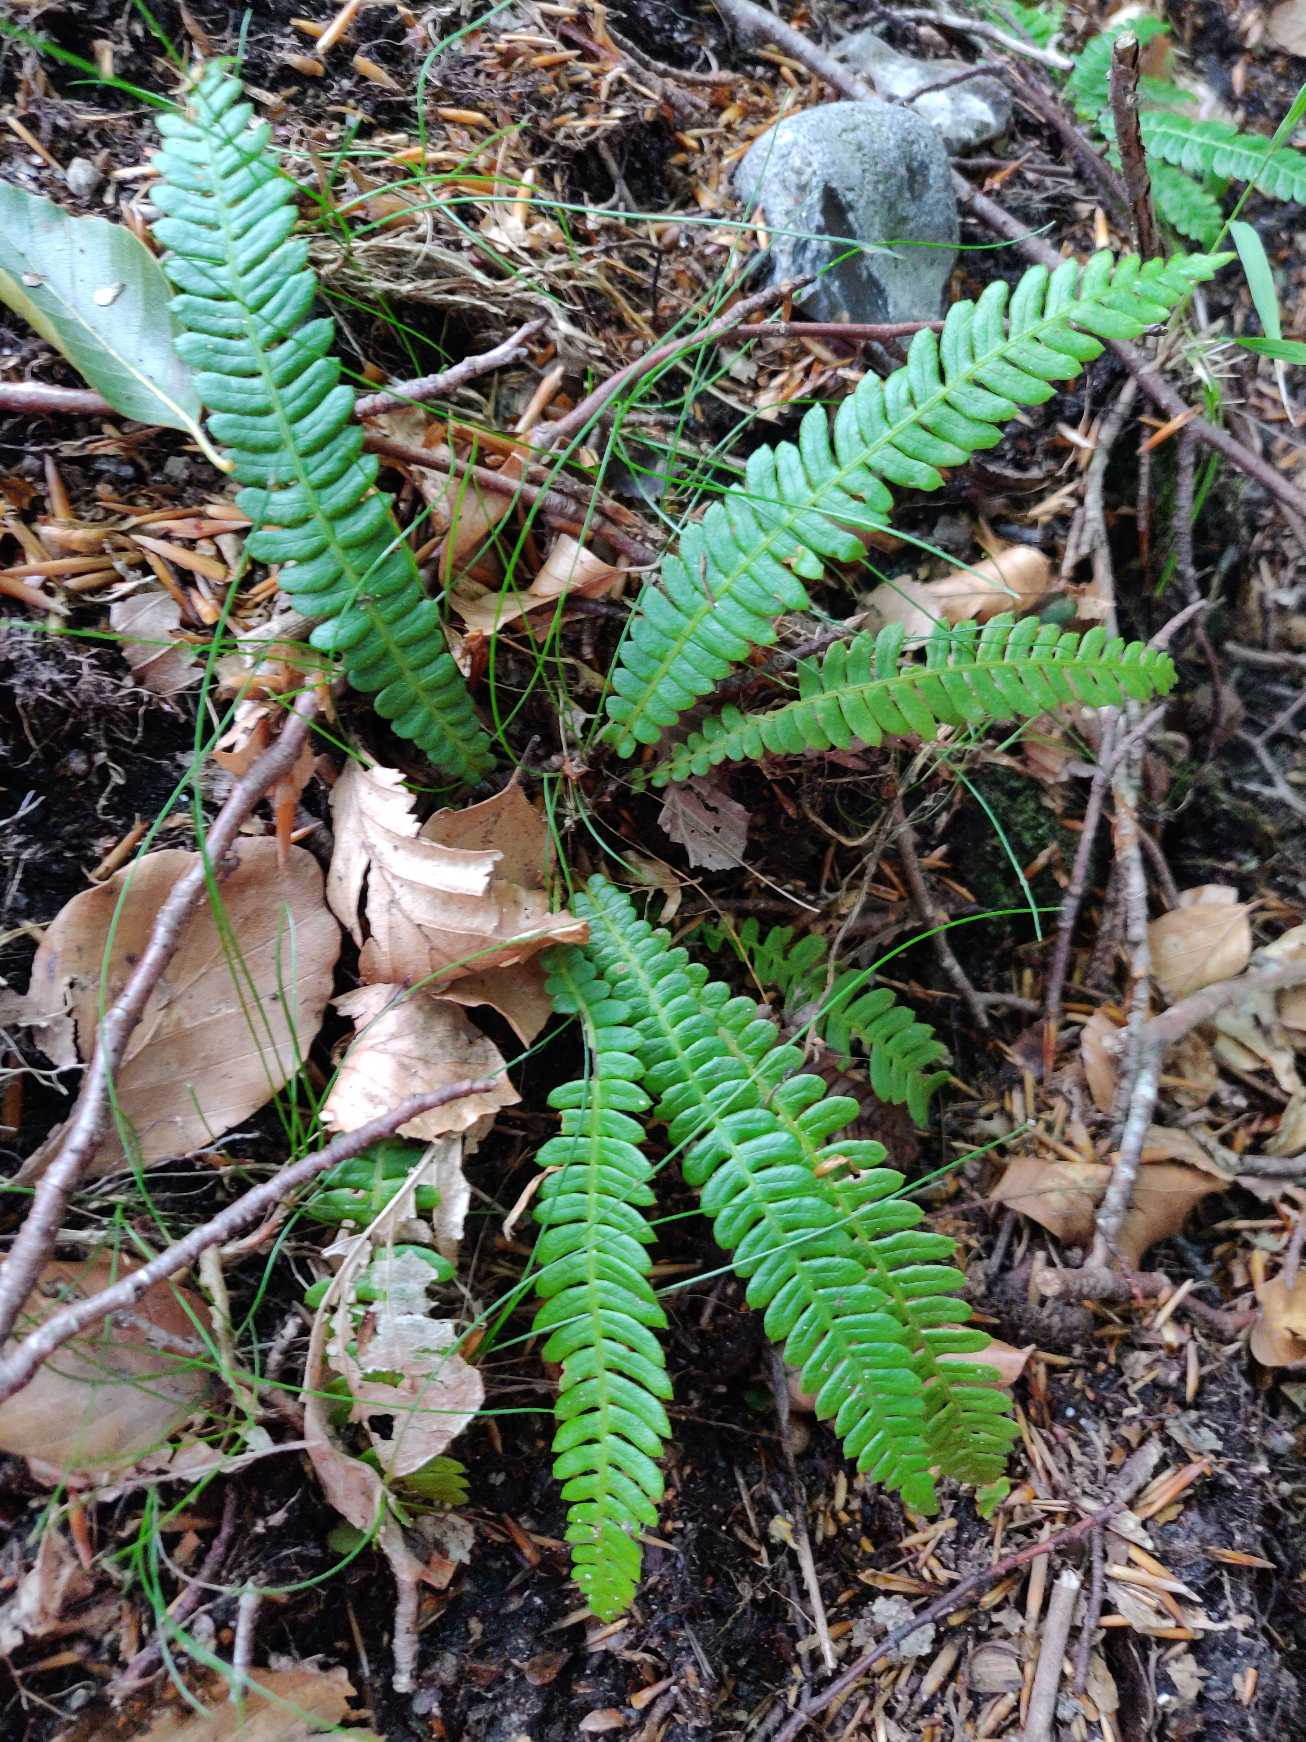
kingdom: Plantae
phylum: Tracheophyta
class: Polypodiopsida
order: Polypodiales
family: Blechnaceae
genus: Struthiopteris
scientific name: Struthiopteris spicant
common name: Kambregne
